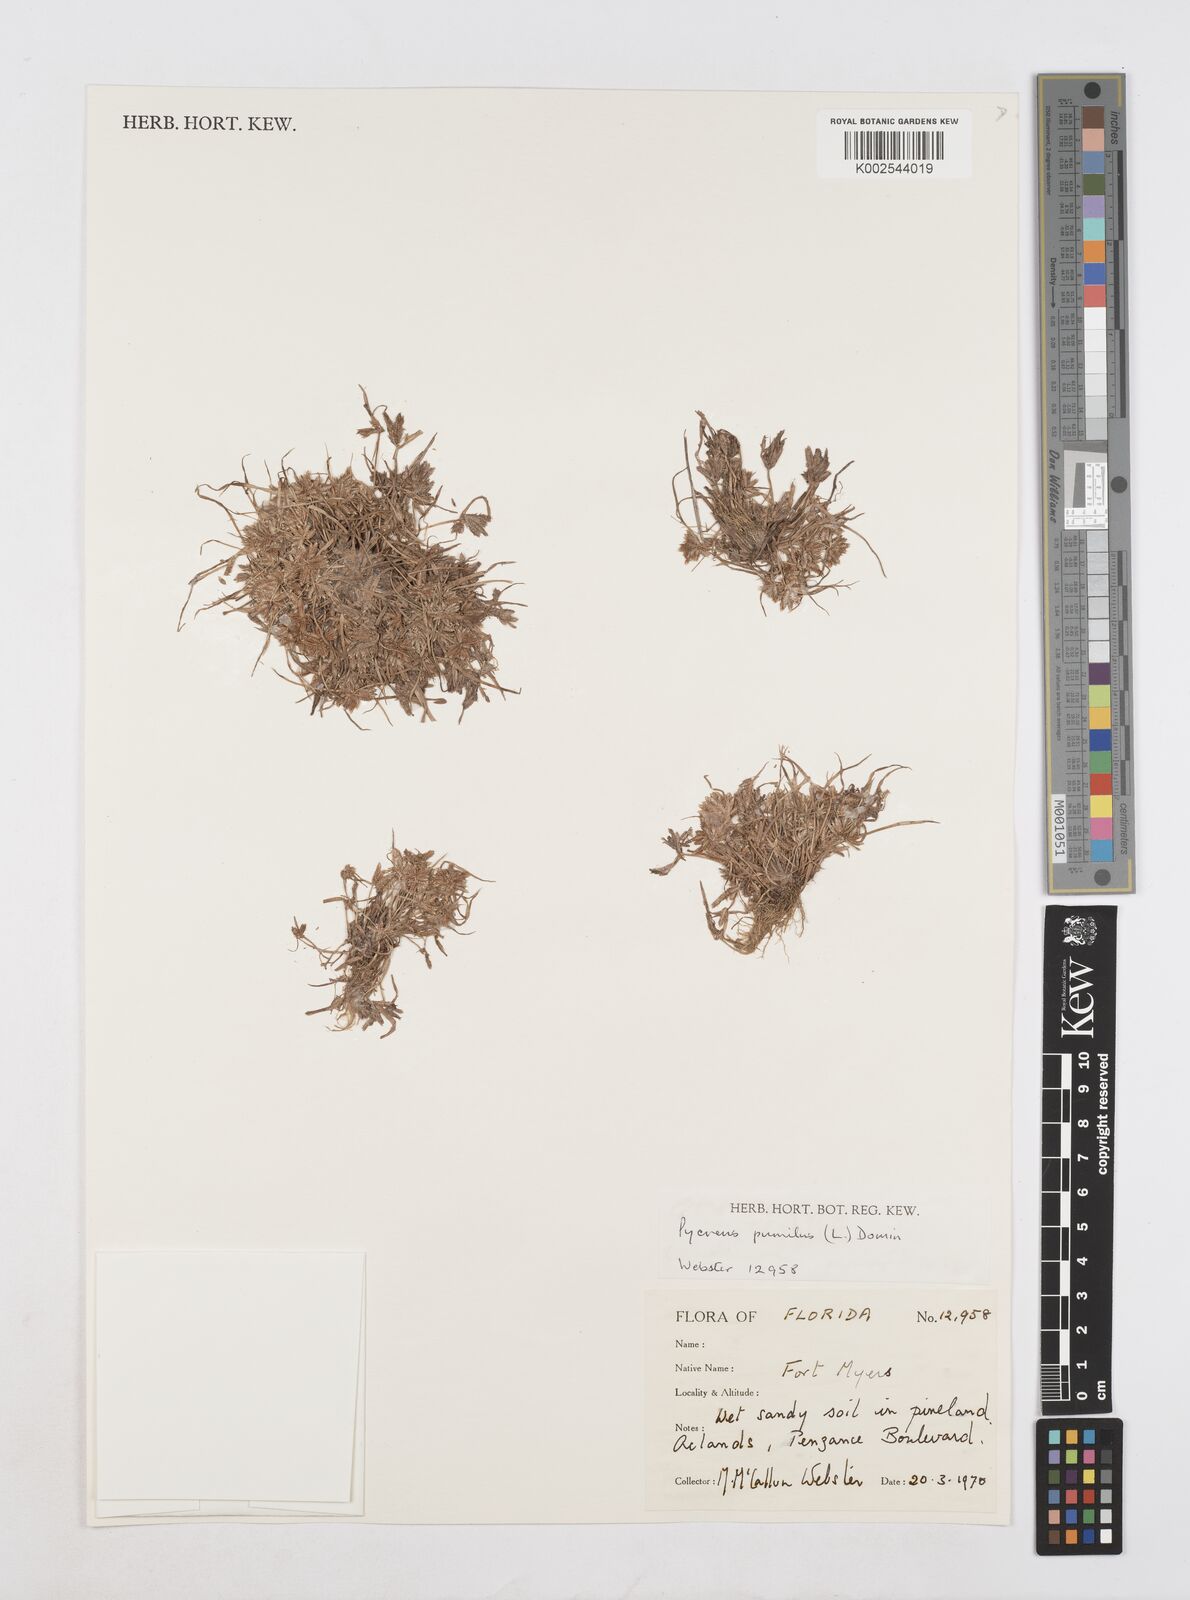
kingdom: Plantae
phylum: Tracheophyta
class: Liliopsida
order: Poales
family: Cyperaceae
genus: Cyperus
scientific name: Cyperus pumilus
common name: Low flatsedge
